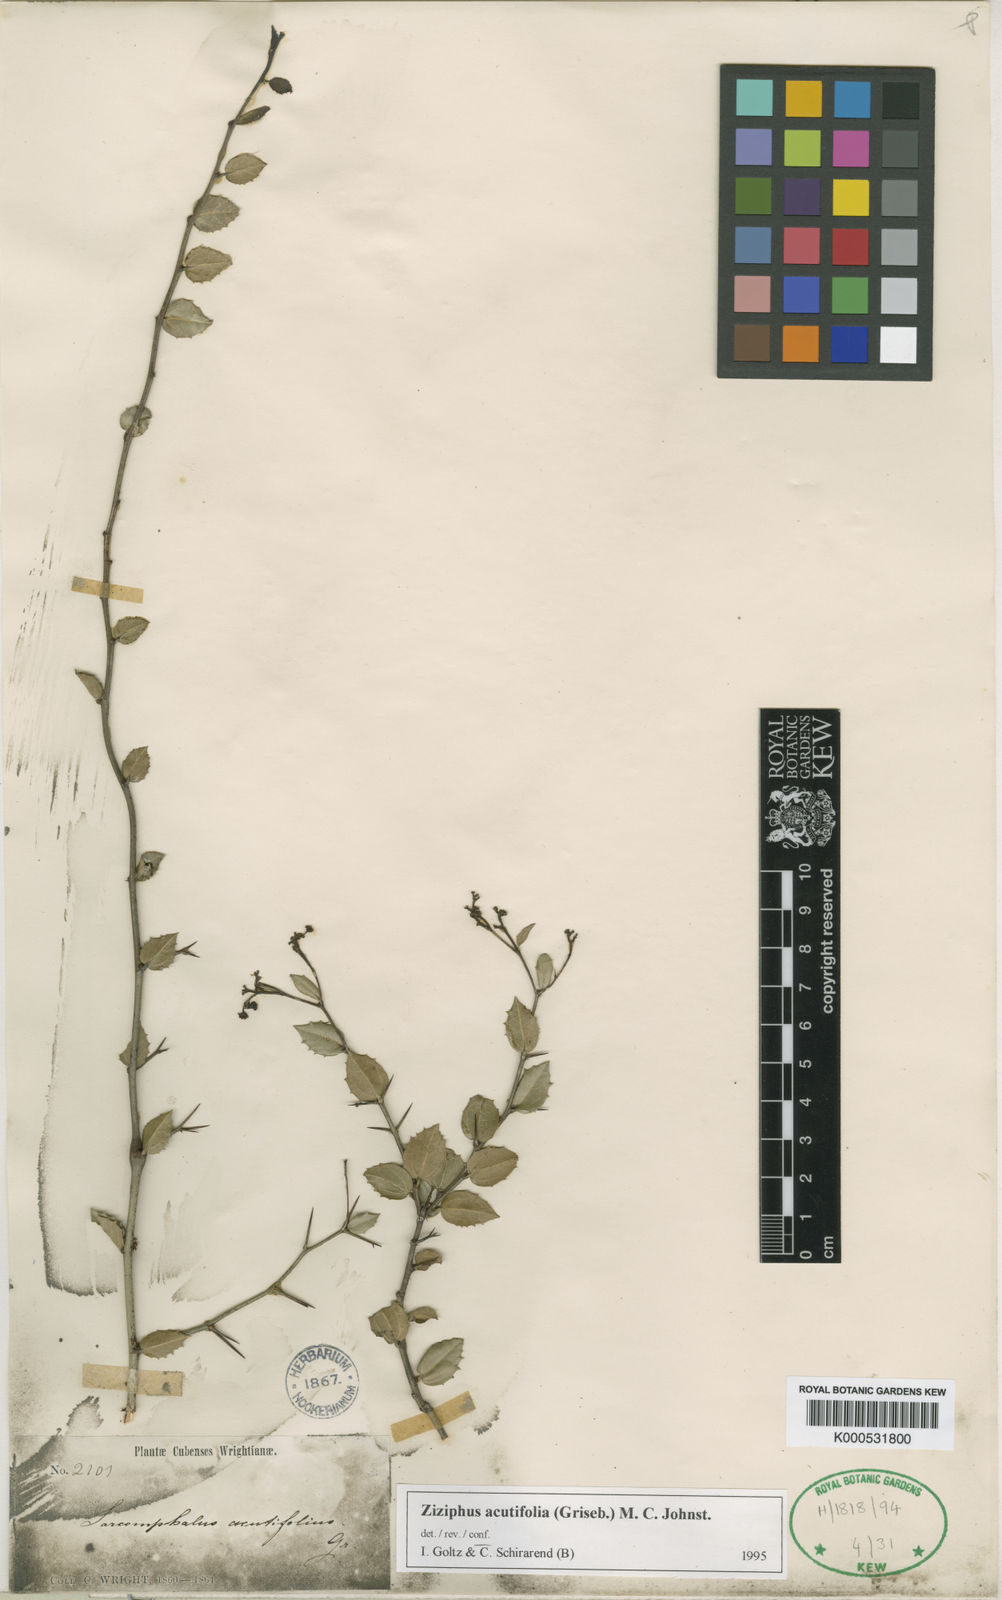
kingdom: Plantae
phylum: Tracheophyta
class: Magnoliopsida
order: Rosales
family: Rhamnaceae
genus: Sarcomphalus
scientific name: Sarcomphalus acutifolius
